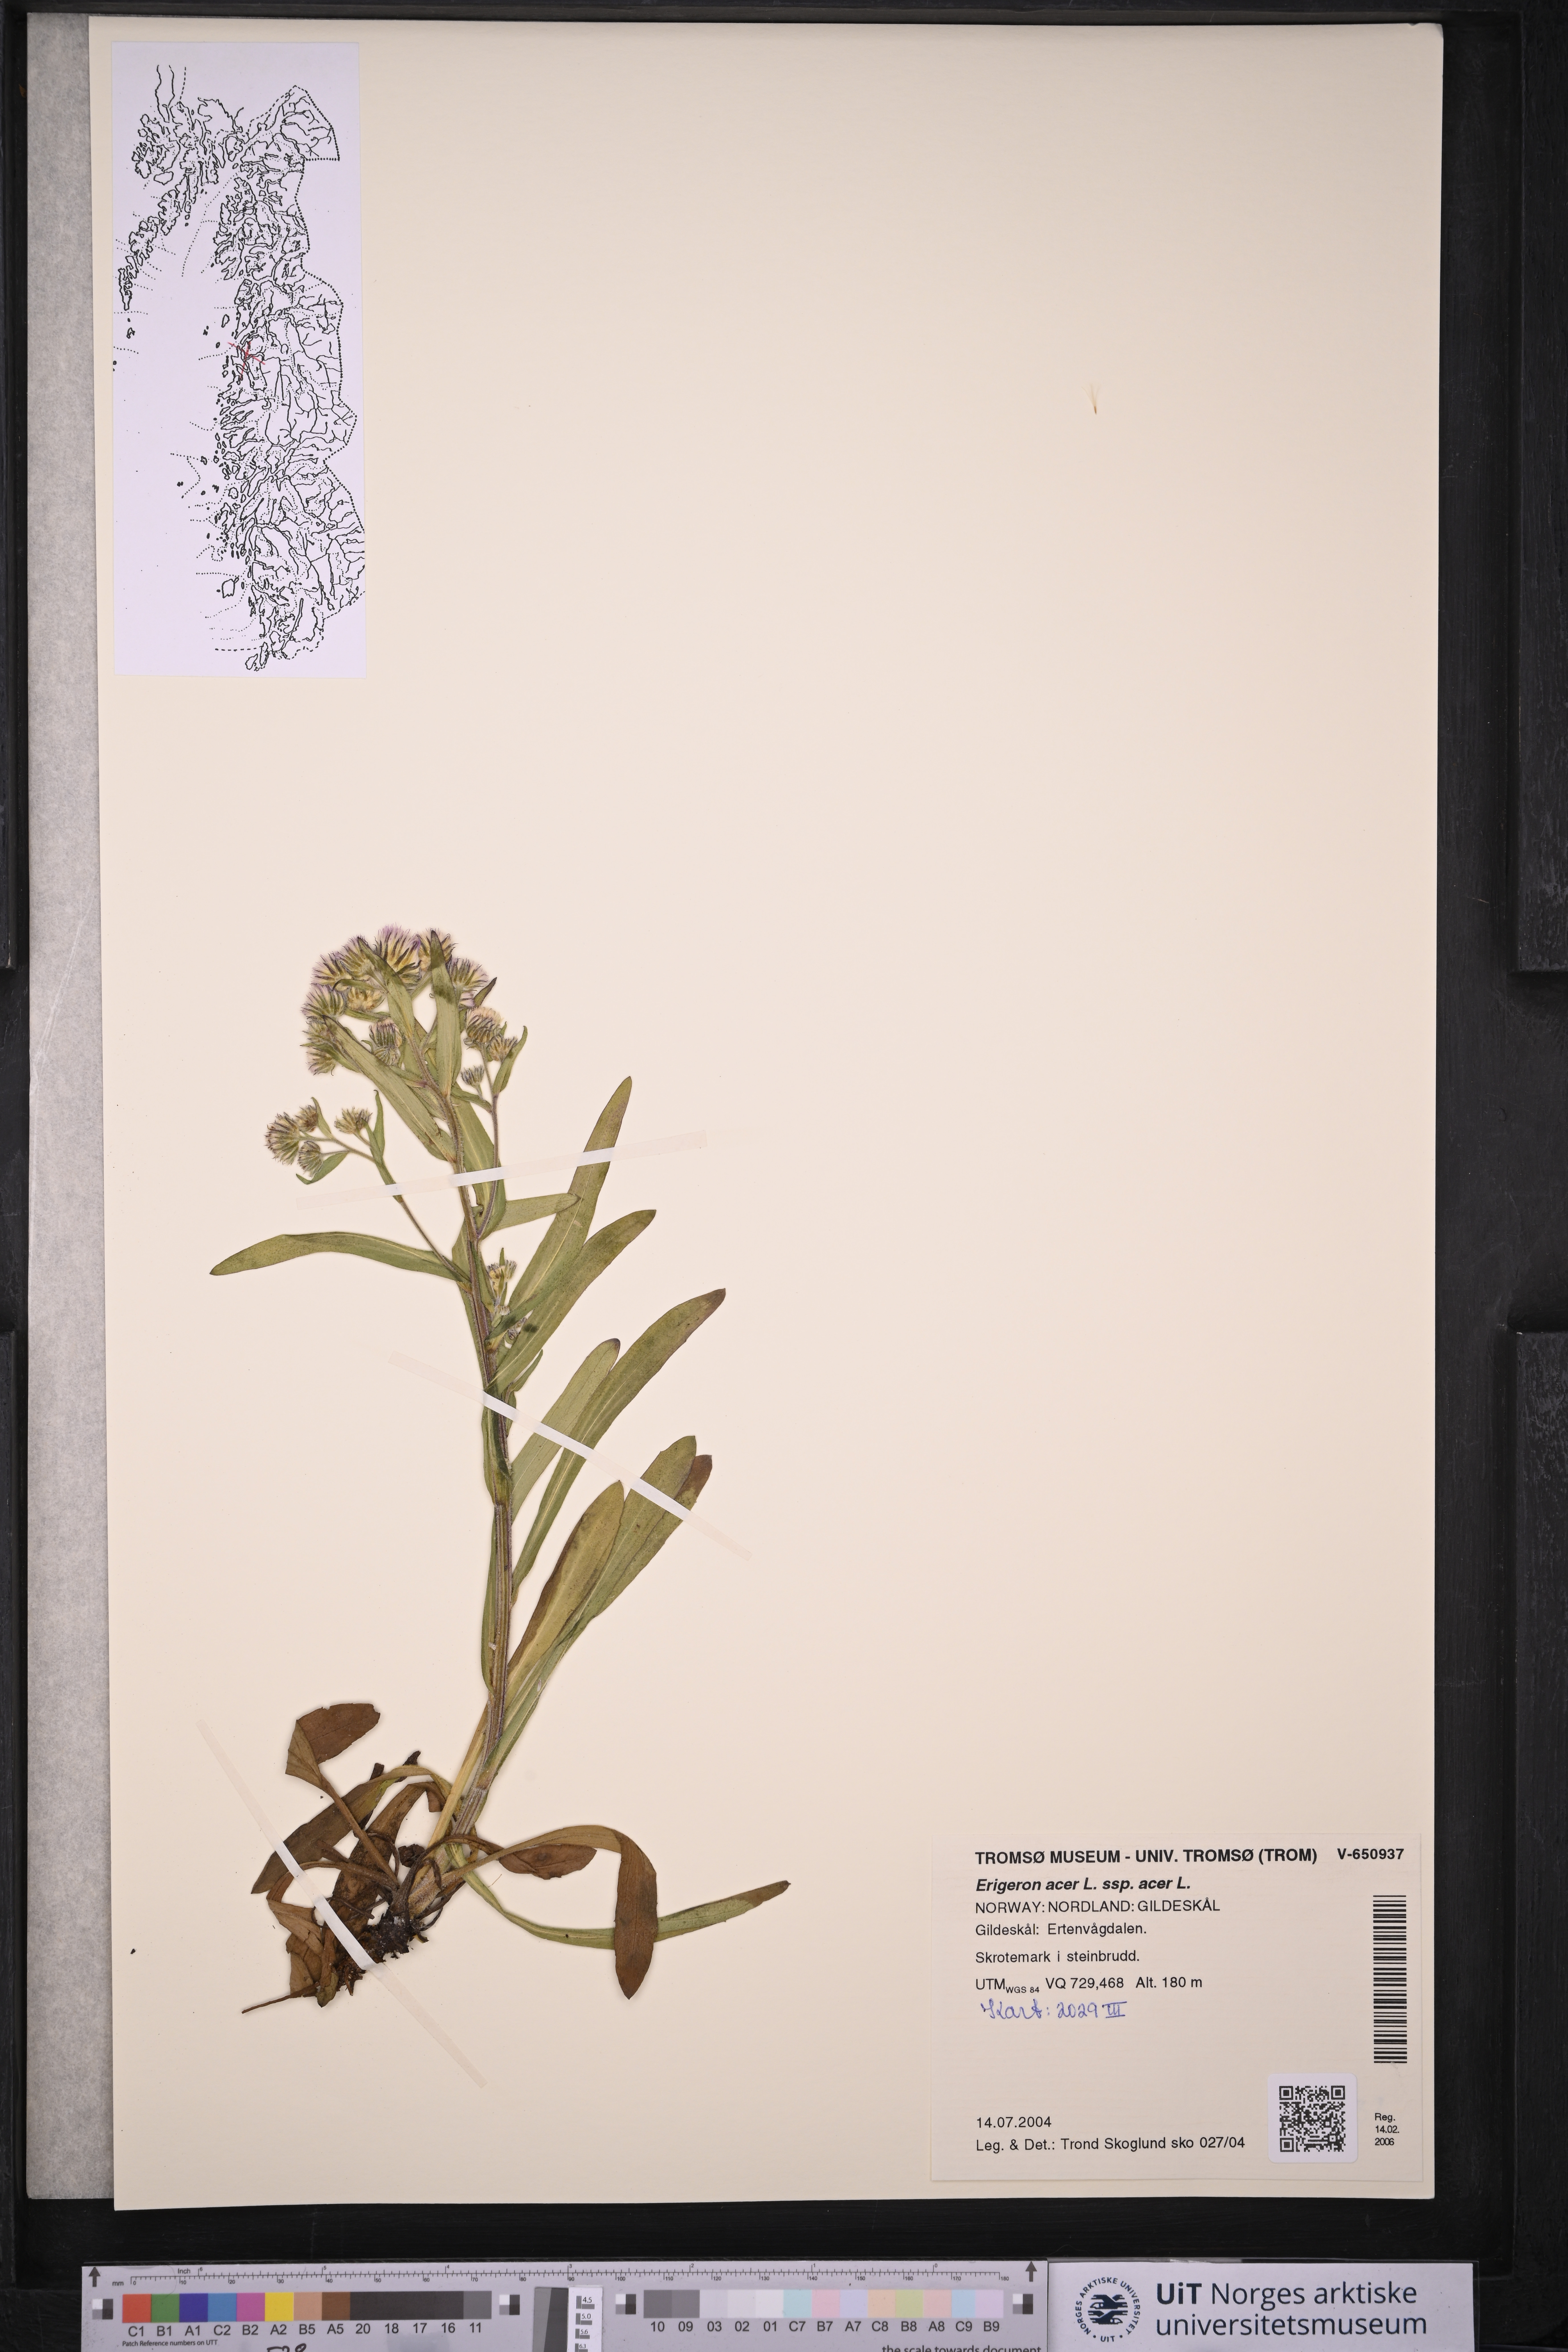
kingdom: Plantae
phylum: Tracheophyta
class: Magnoliopsida
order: Asterales
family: Asteraceae
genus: Erigeron
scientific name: Erigeron acris
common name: Blue fleabane
